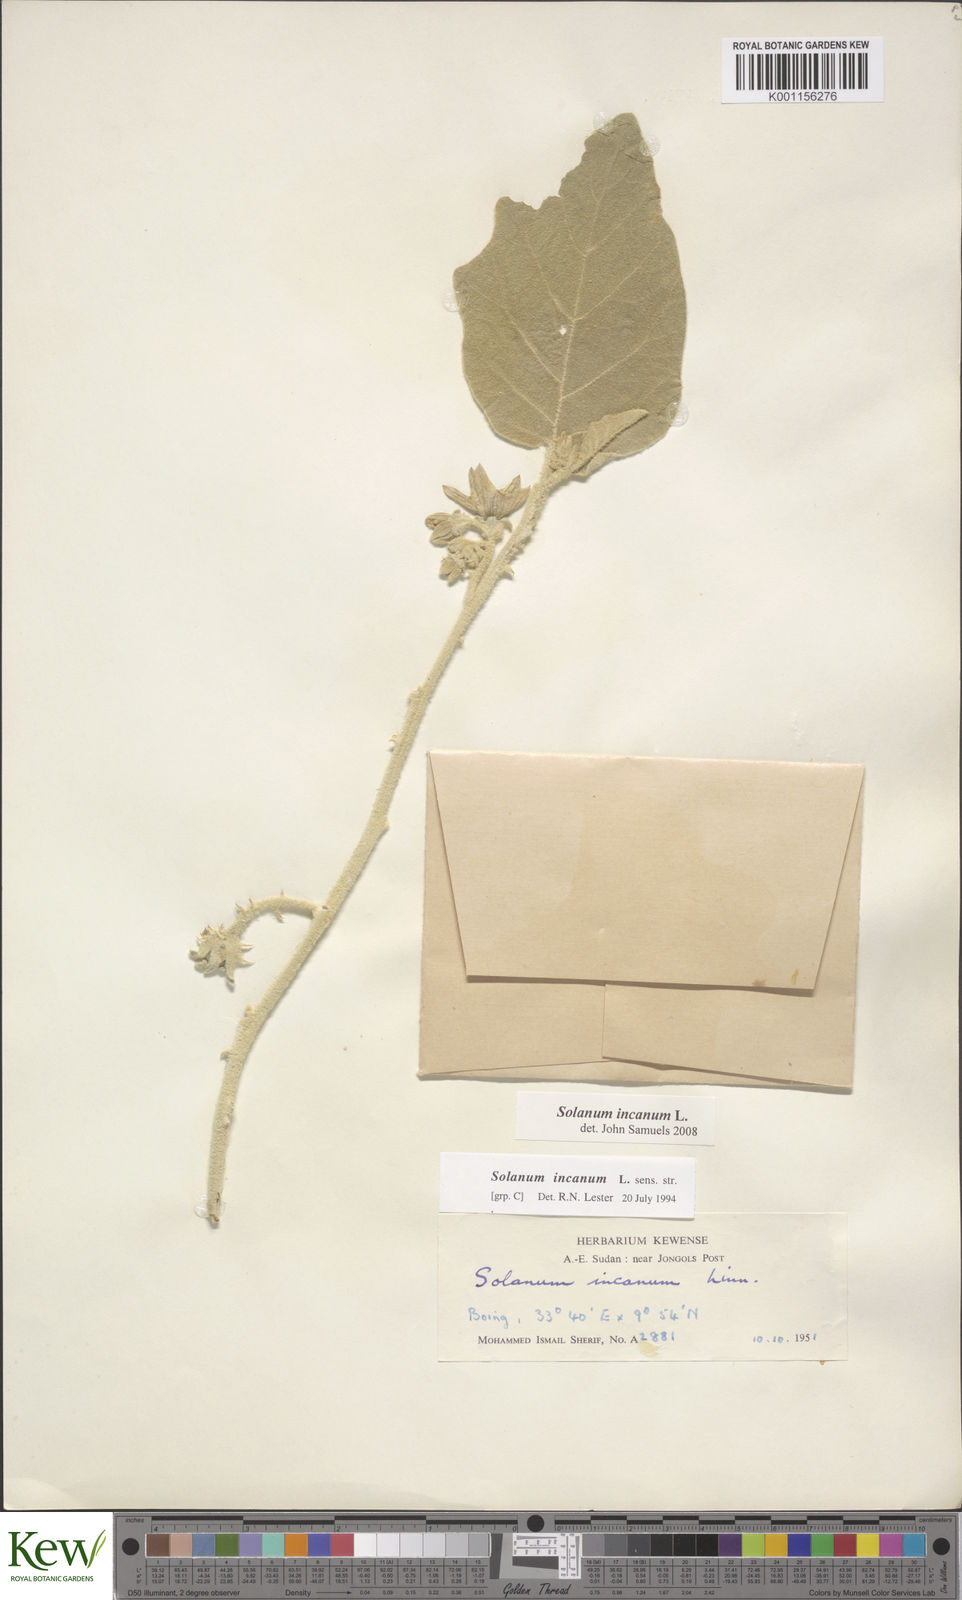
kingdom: Plantae
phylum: Tracheophyta
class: Magnoliopsida
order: Solanales
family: Solanaceae
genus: Solanum
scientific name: Solanum incanum
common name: Bitter apple
